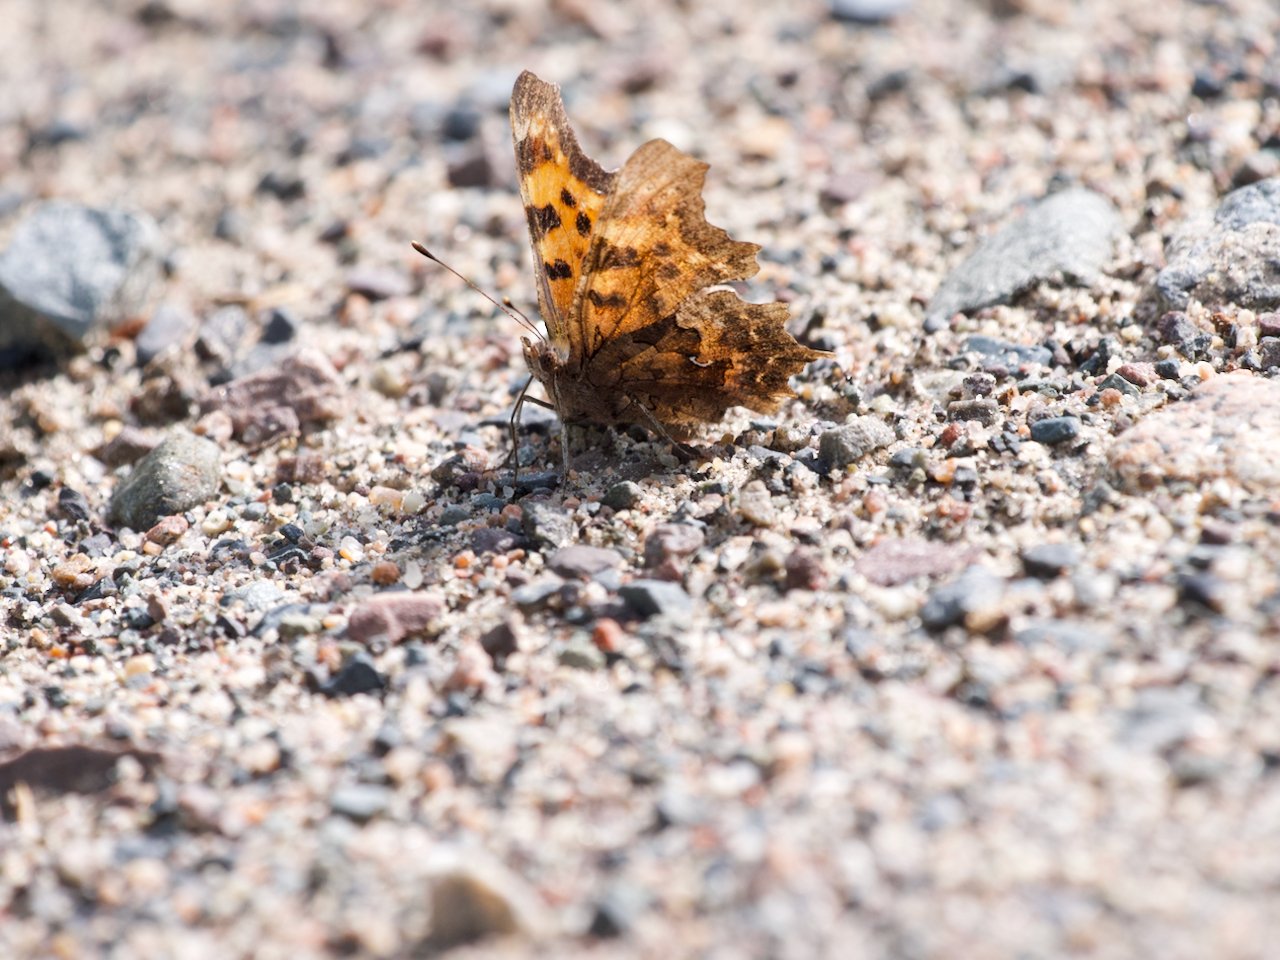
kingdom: Animalia
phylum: Arthropoda
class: Insecta
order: Lepidoptera
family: Nymphalidae
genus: Polygonia
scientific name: Polygonia faunus
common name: Green Comma
